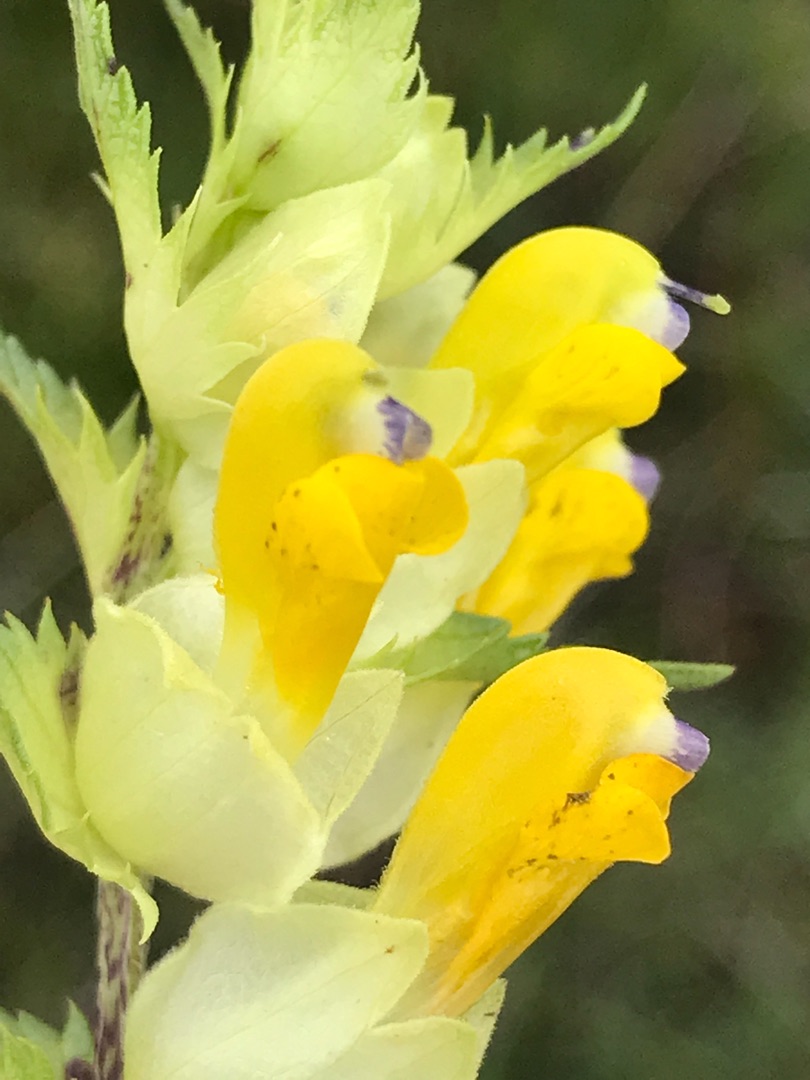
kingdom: Plantae
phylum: Tracheophyta
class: Magnoliopsida
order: Lamiales
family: Orobanchaceae
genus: Rhinanthus
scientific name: Rhinanthus
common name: Stor skjaller
